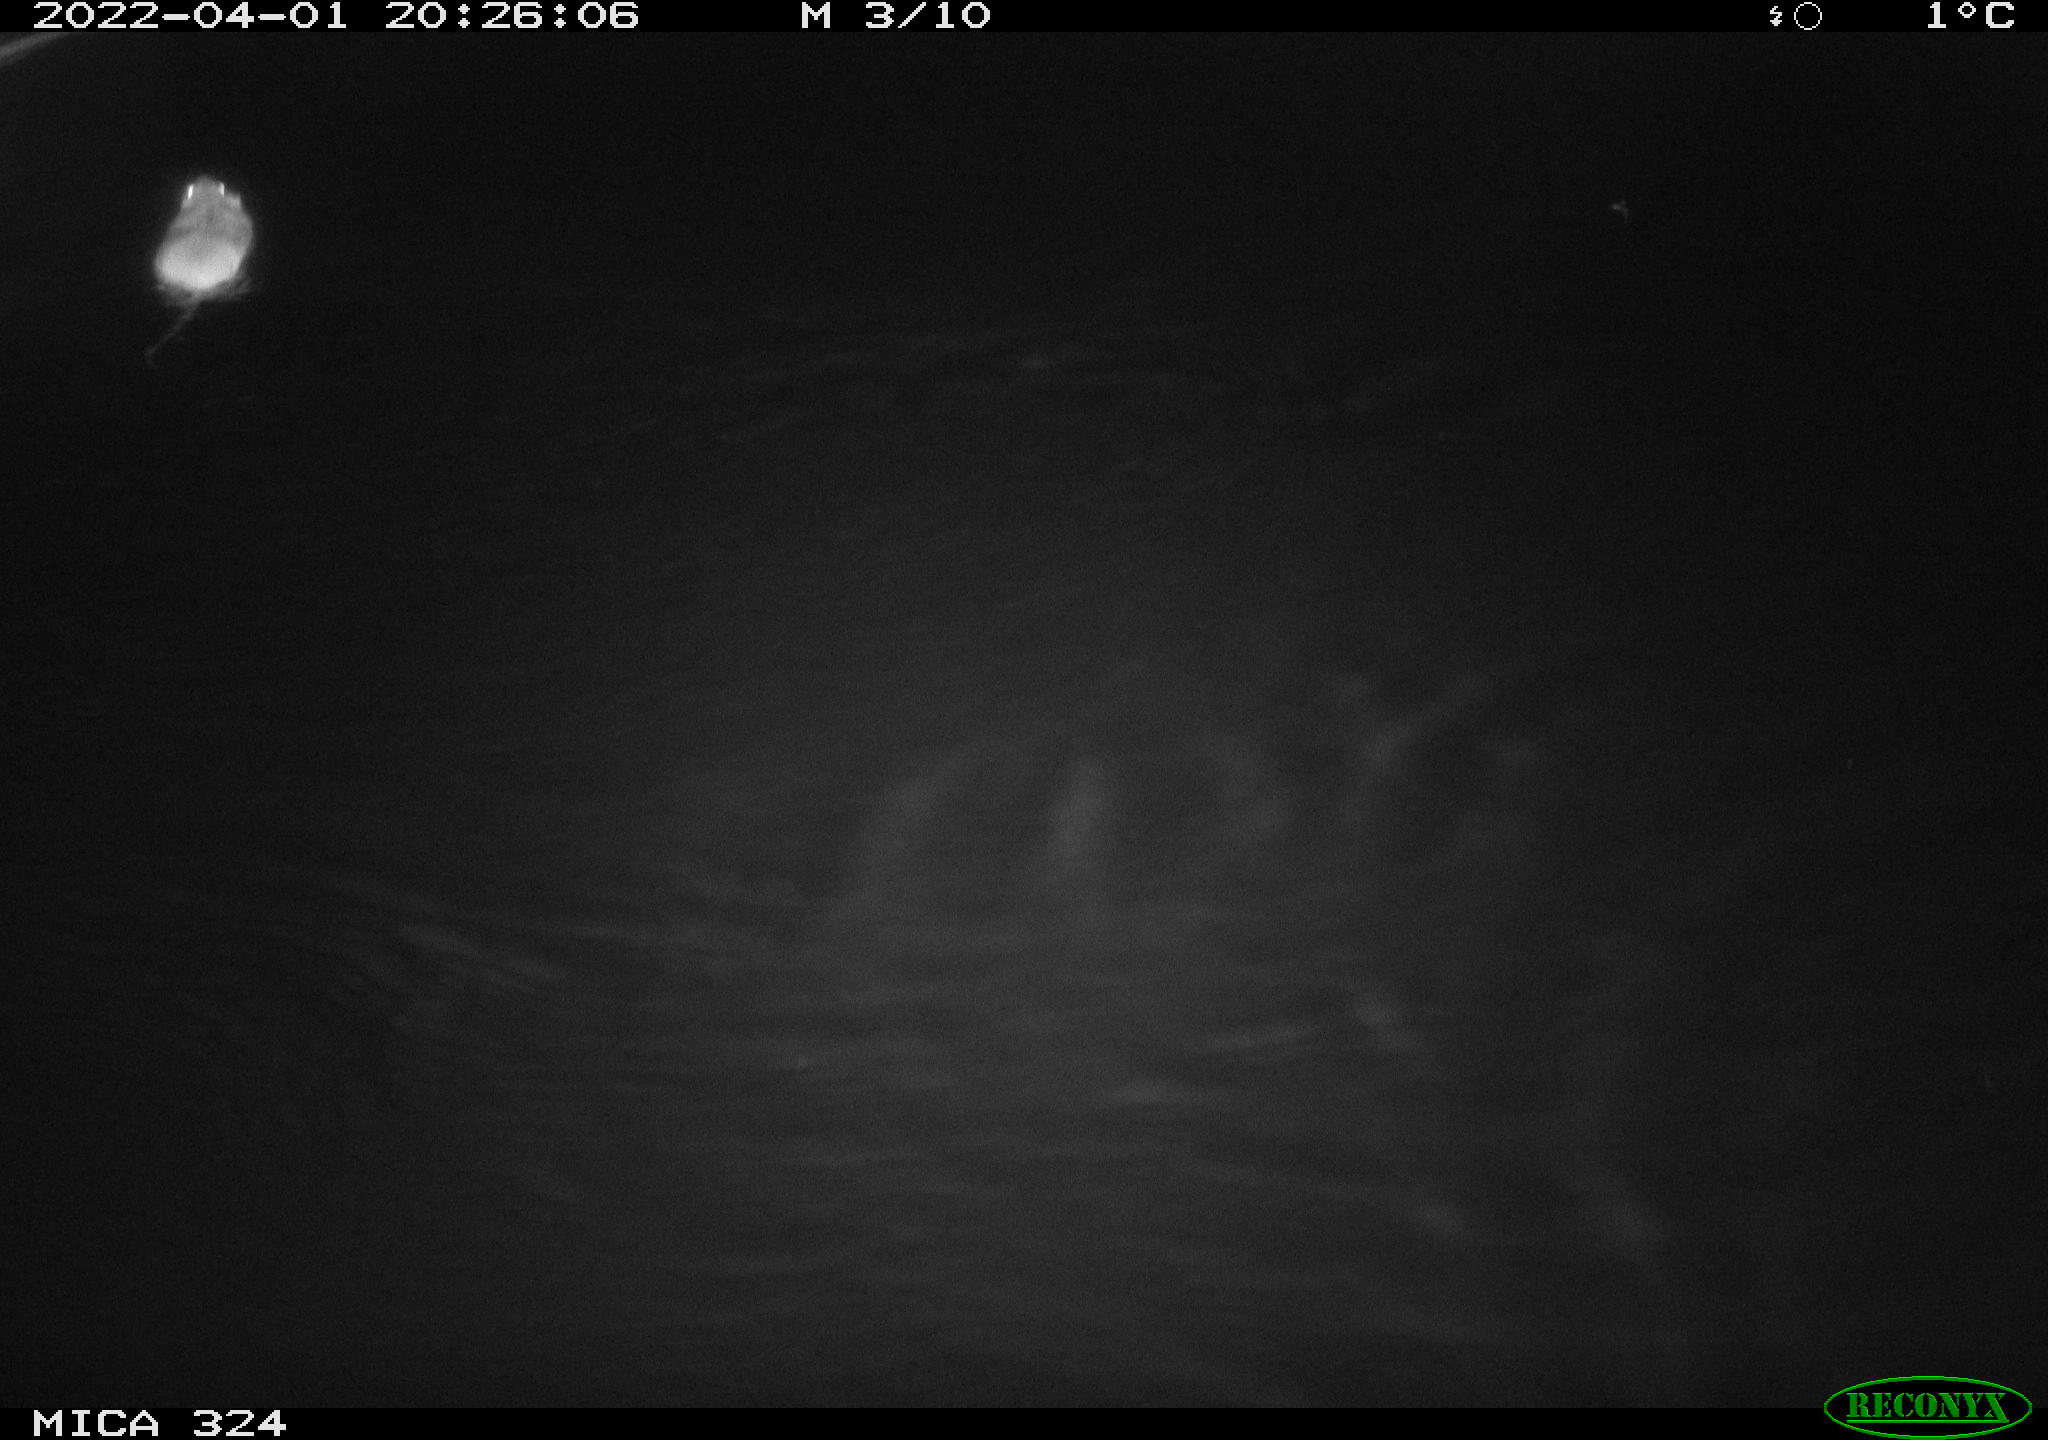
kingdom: Animalia
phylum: Chordata
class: Mammalia
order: Rodentia
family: Cricetidae
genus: Ondatra
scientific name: Ondatra zibethicus
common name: Muskrat
